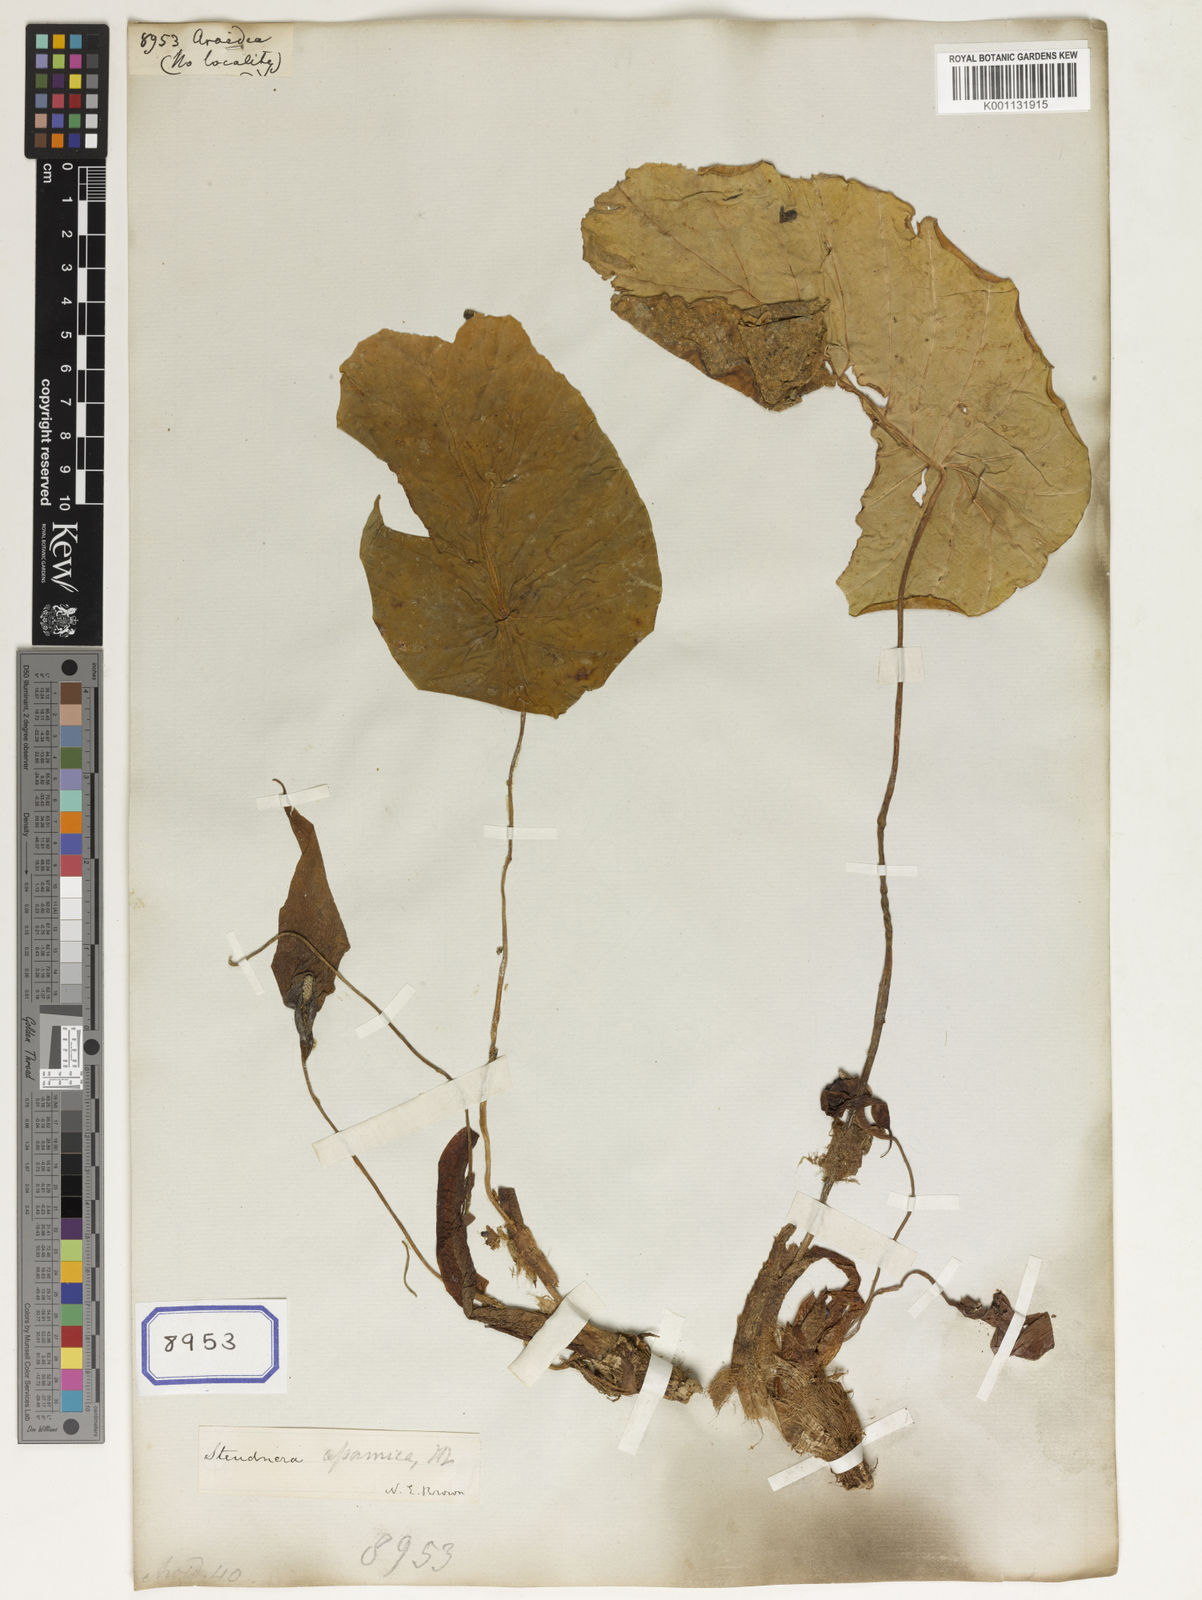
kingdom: Plantae
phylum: Tracheophyta
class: Liliopsida
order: Alismatales
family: Araceae
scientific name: Araceae
